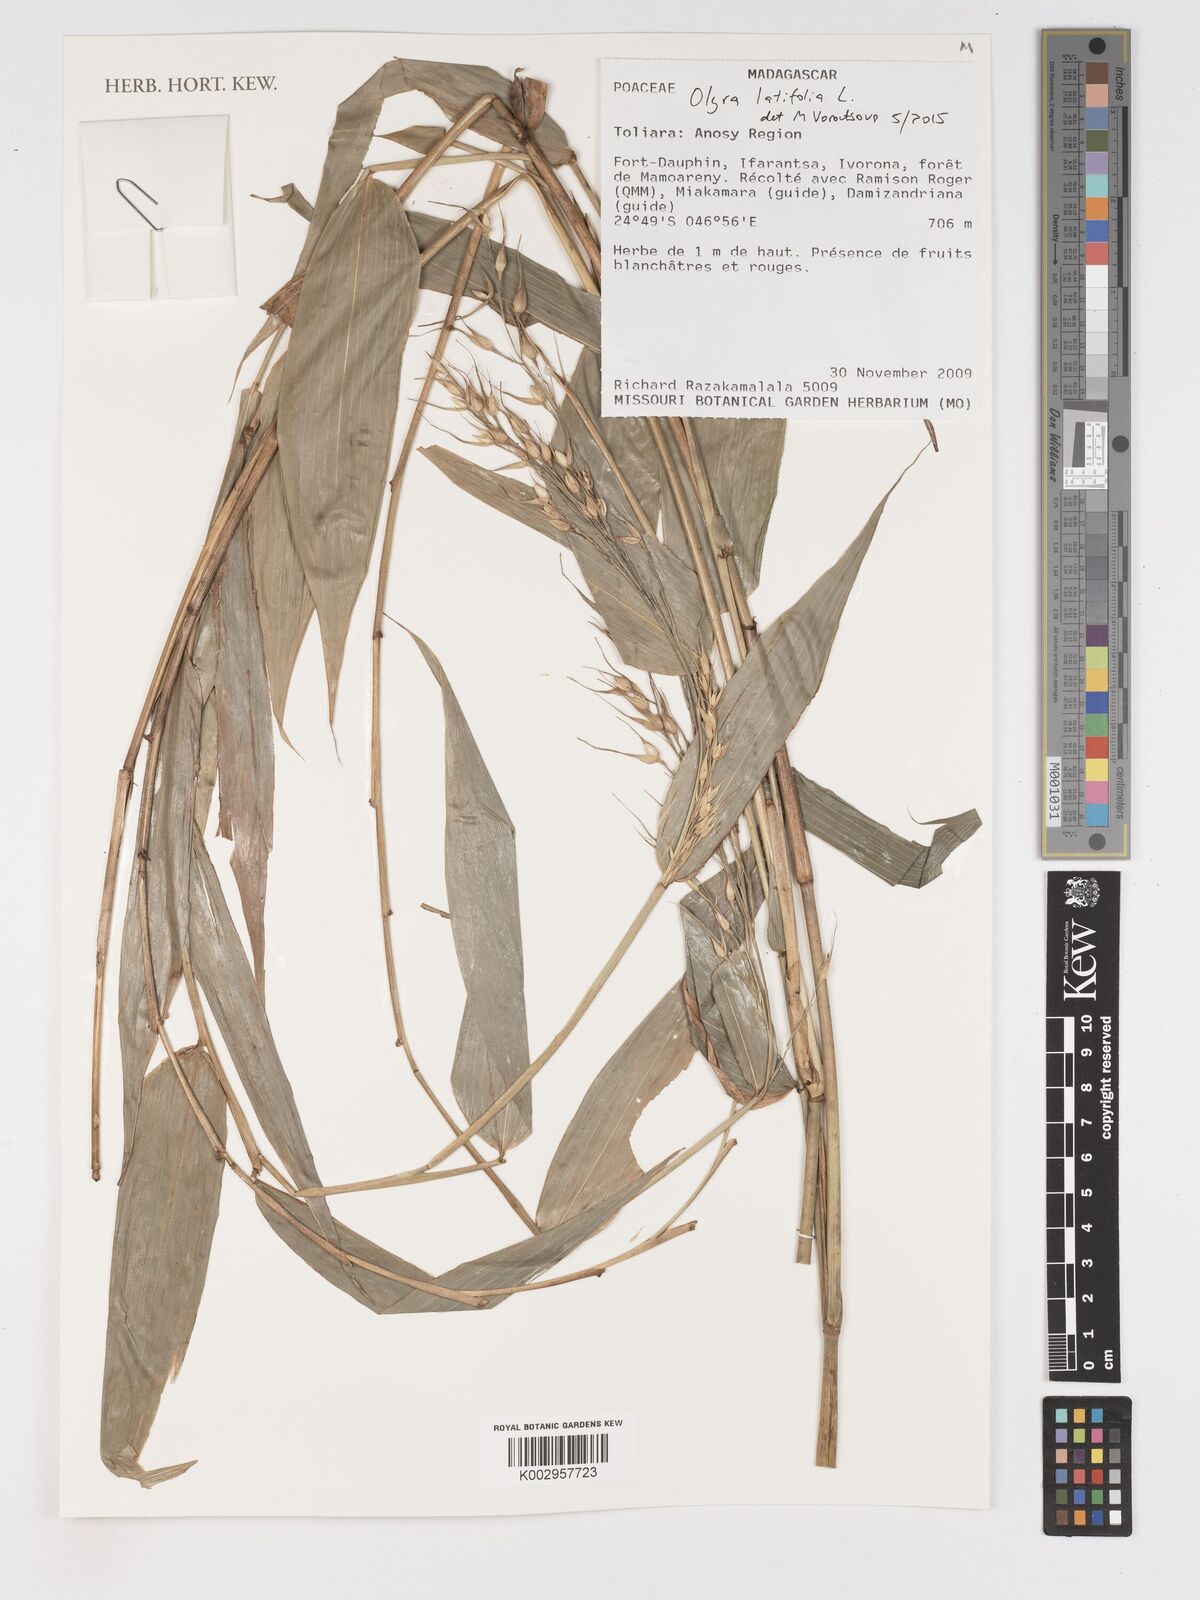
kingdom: Plantae
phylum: Tracheophyta
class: Liliopsida
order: Poales
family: Poaceae
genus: Olyra
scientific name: Olyra latifolia
